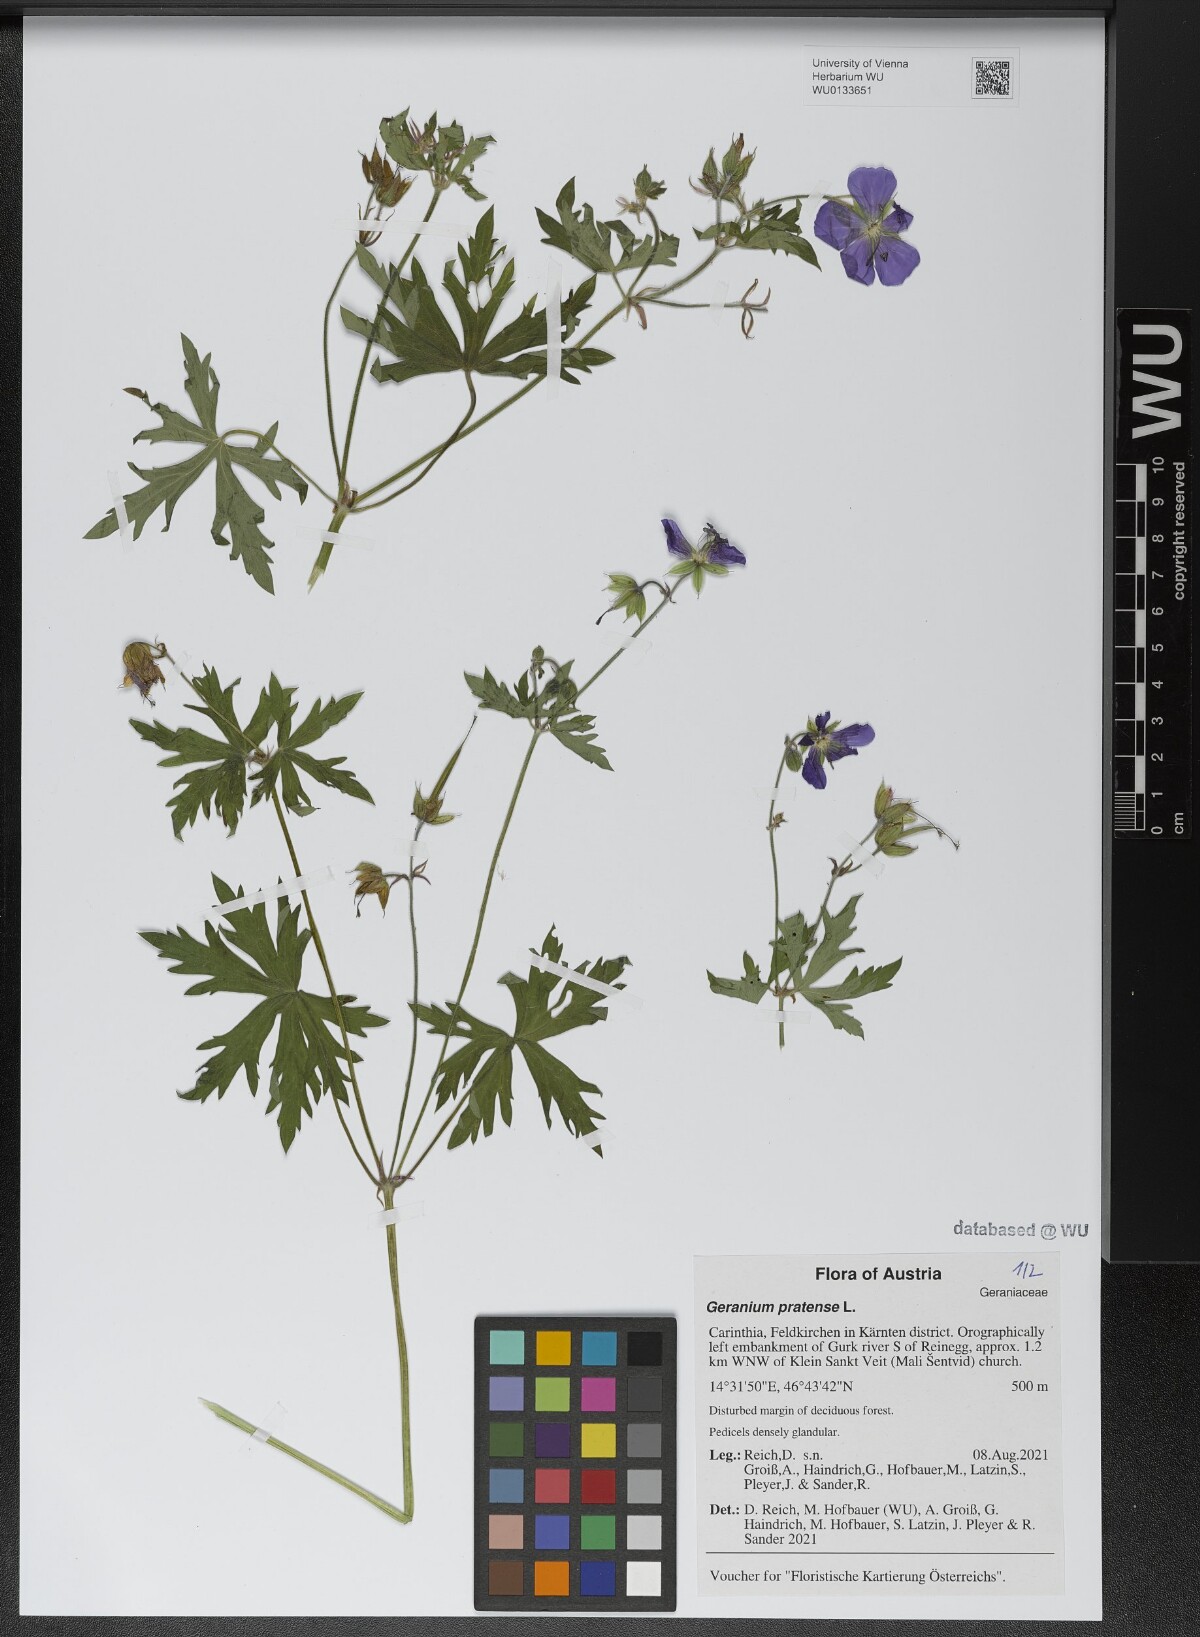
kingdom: Plantae
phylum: Tracheophyta
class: Magnoliopsida
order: Geraniales
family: Geraniaceae
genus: Geranium
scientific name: Geranium pratense
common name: Meadow crane's-bill
